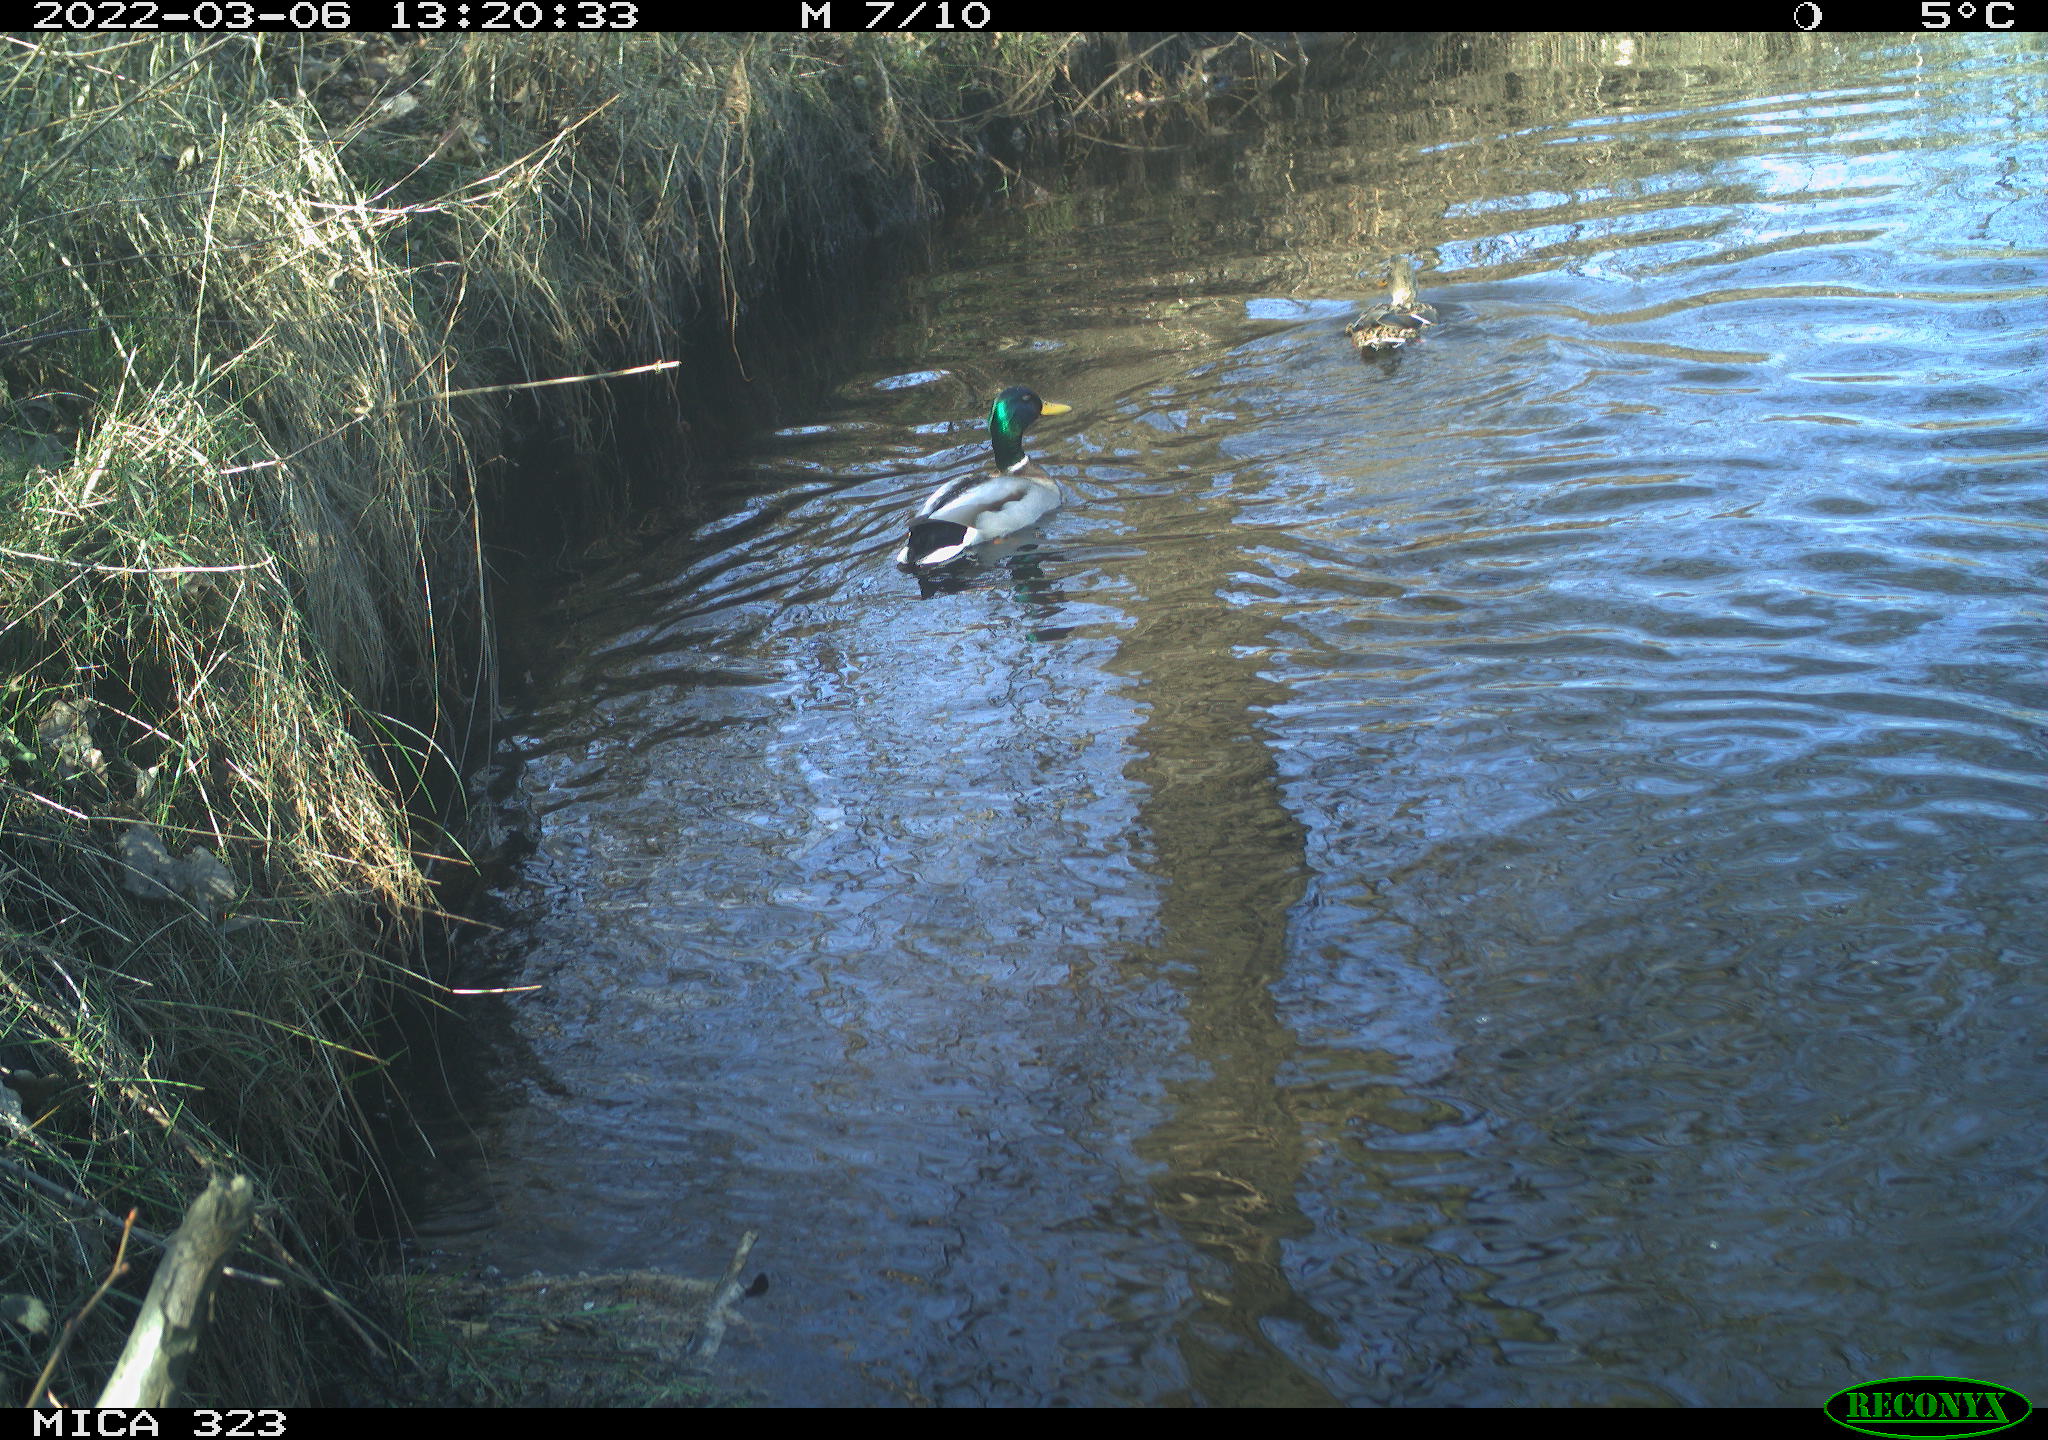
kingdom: Animalia
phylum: Chordata
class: Aves
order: Anseriformes
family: Anatidae
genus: Anas
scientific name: Anas platyrhynchos
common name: Mallard
